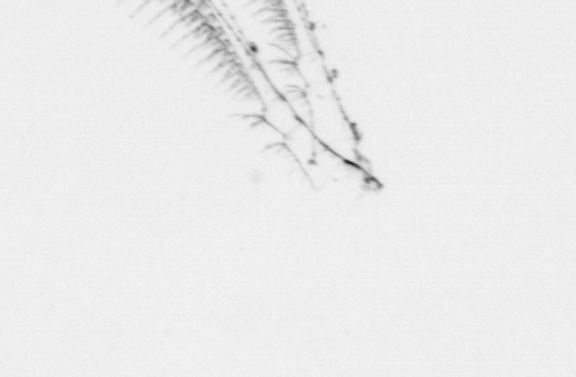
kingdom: Chromista
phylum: Ochrophyta
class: Bacillariophyceae
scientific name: Bacillariophyceae
